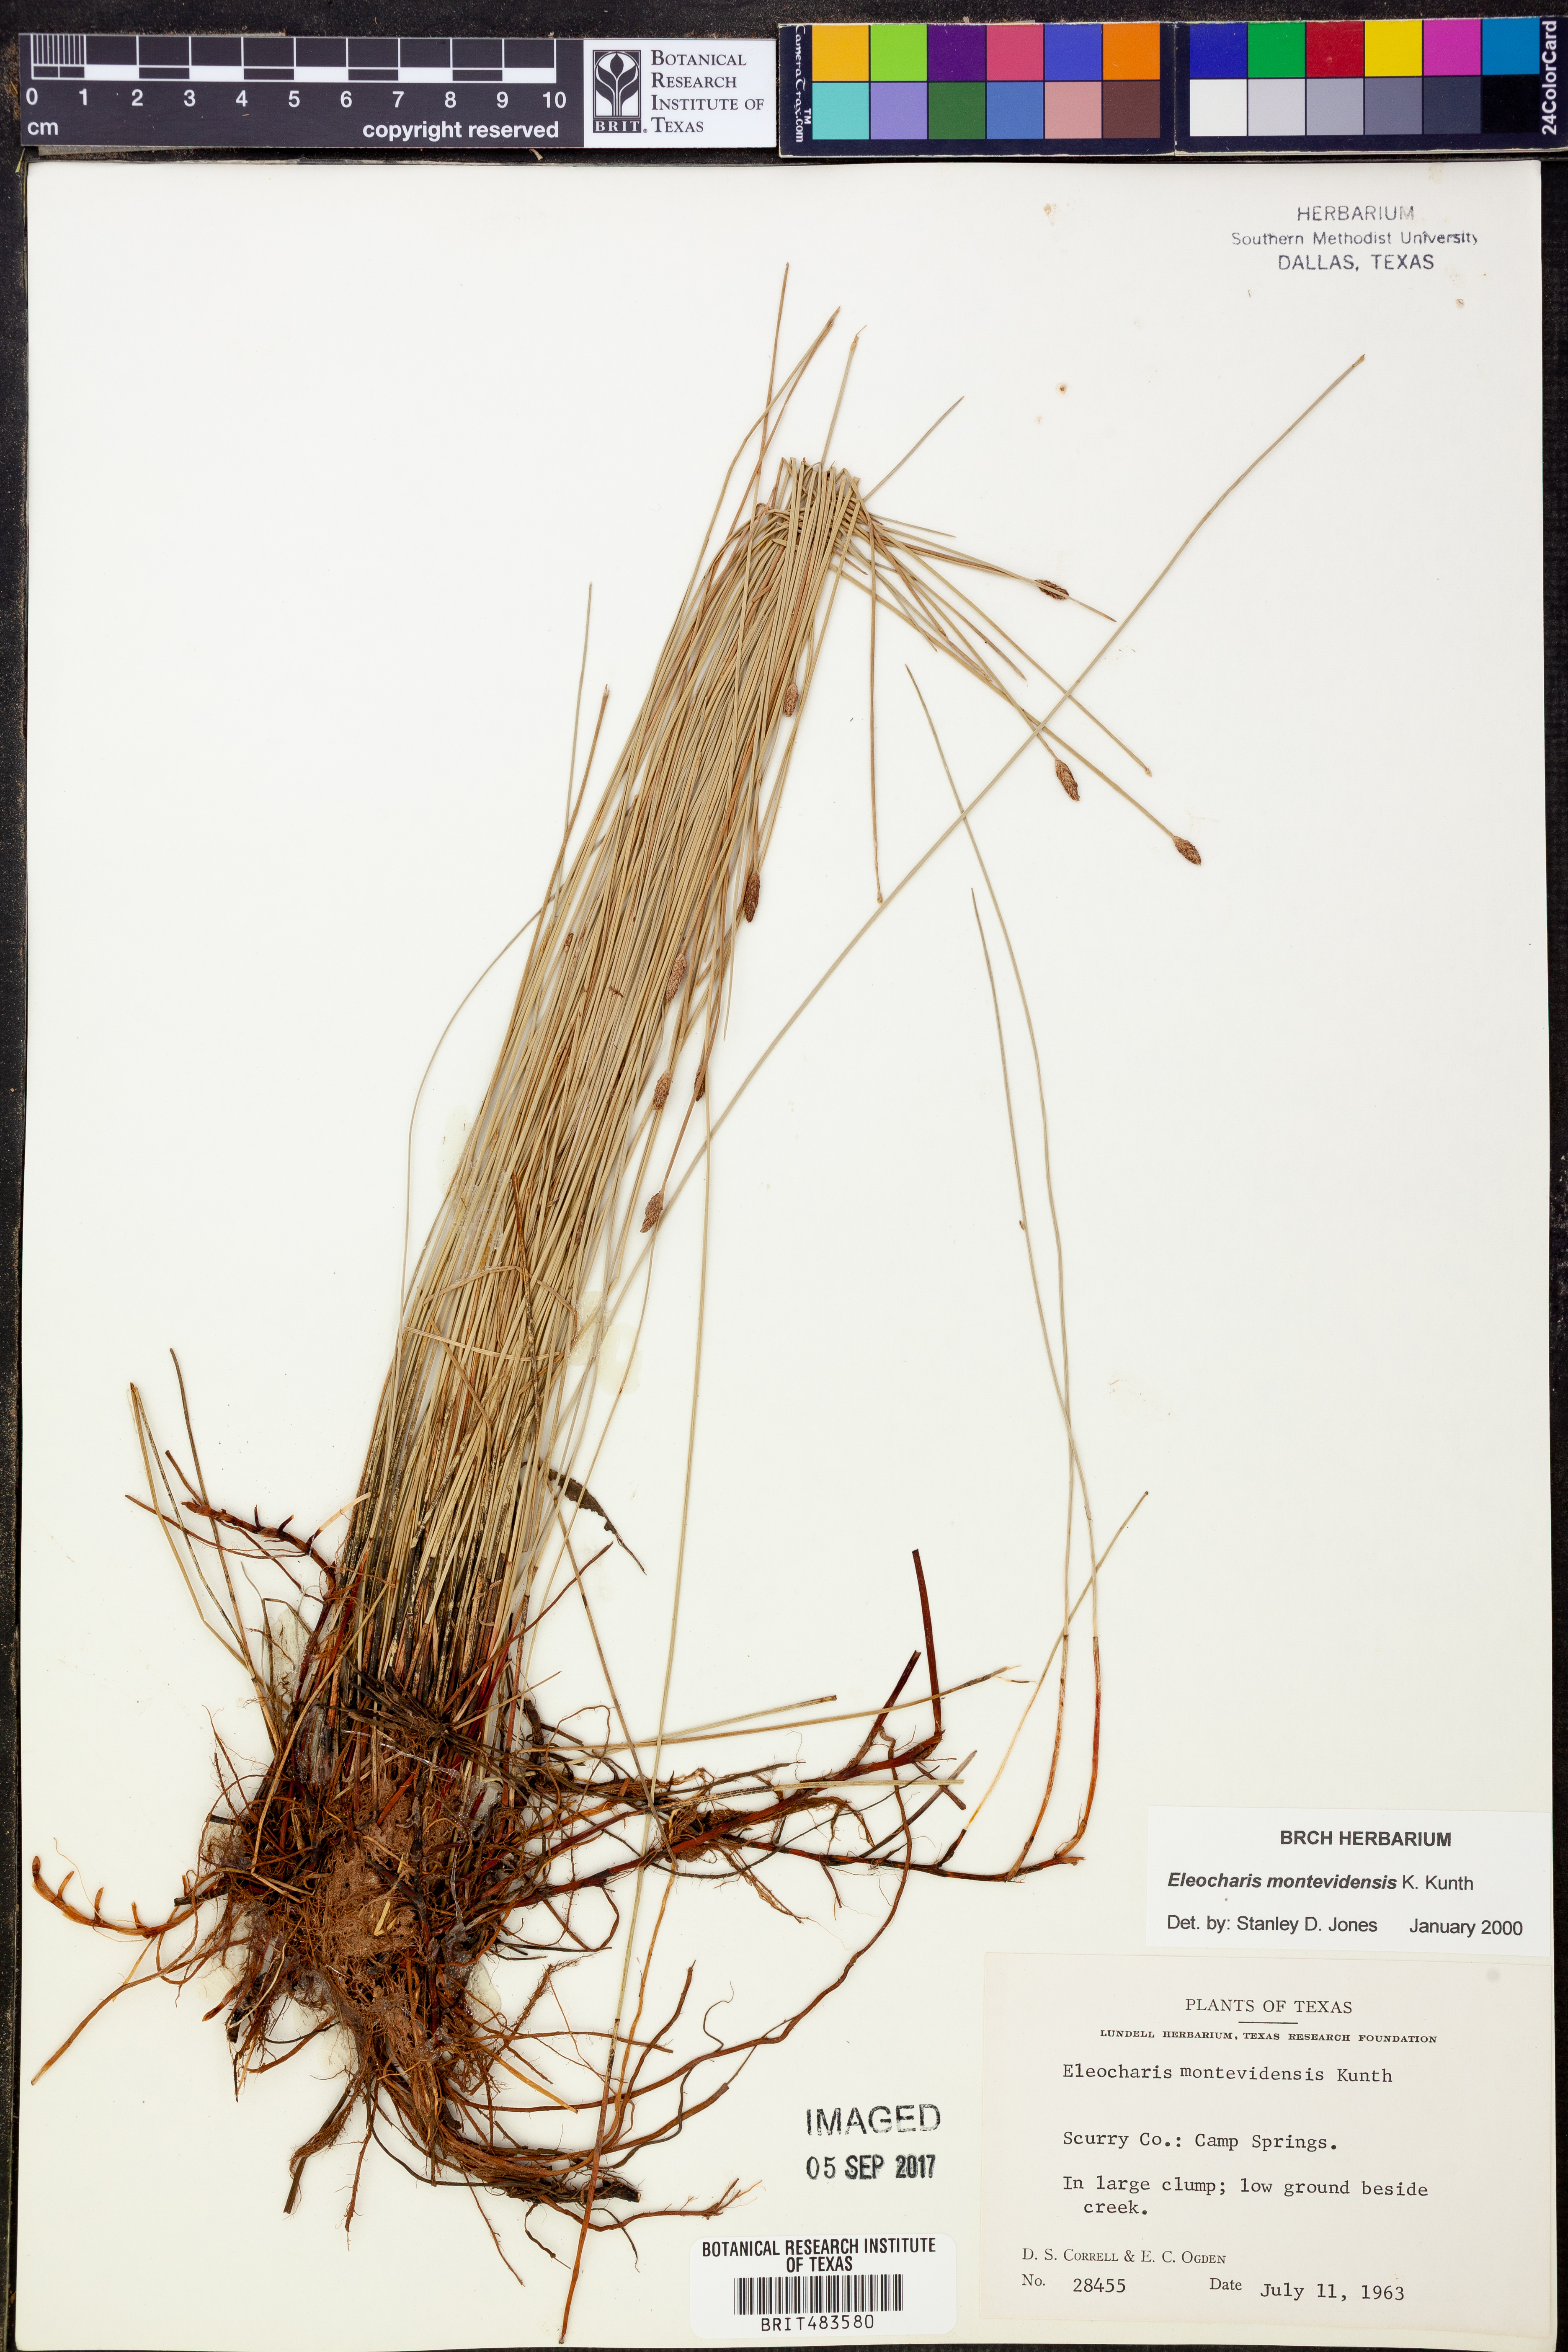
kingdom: Plantae
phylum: Tracheophyta
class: Liliopsida
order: Poales
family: Cyperaceae
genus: Eleocharis
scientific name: Eleocharis montevidensis
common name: Sand spike-rush
